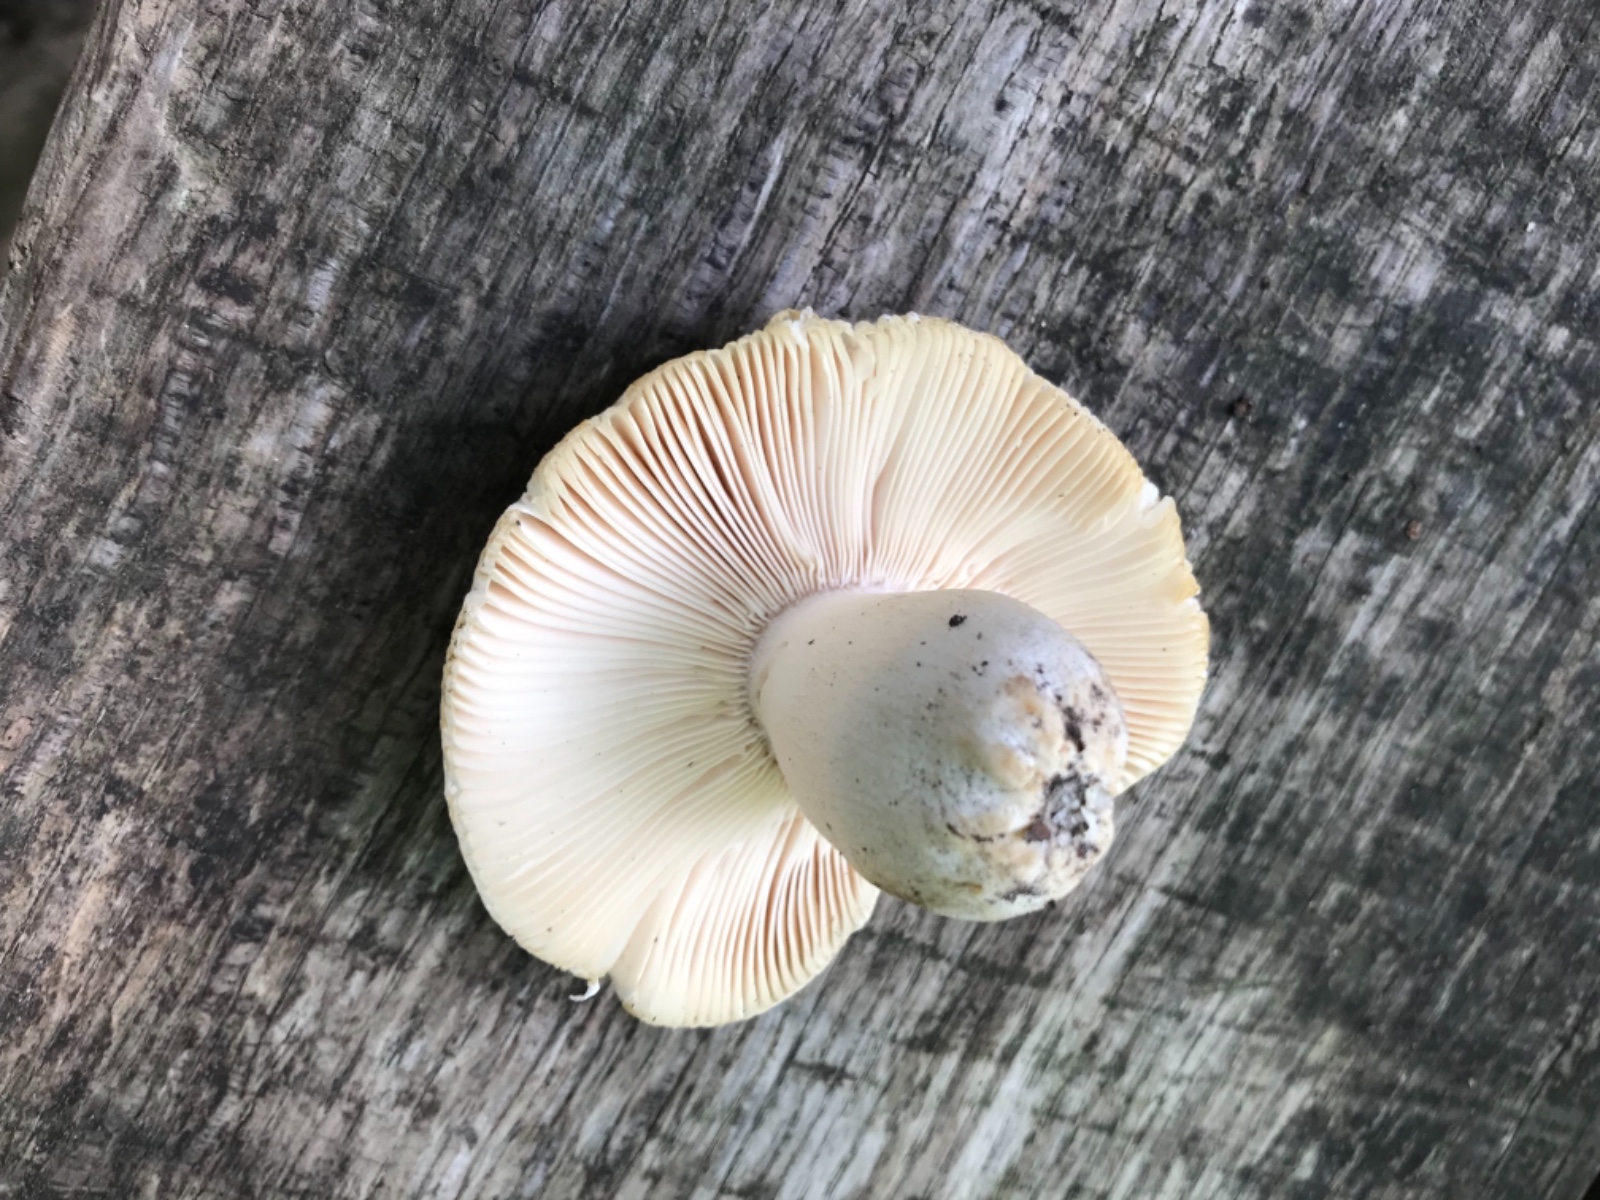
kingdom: Fungi
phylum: Basidiomycota
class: Agaricomycetes
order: Russulales
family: Russulaceae
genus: Russula
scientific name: Russula virescens
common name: spanskgrøn skørhat
